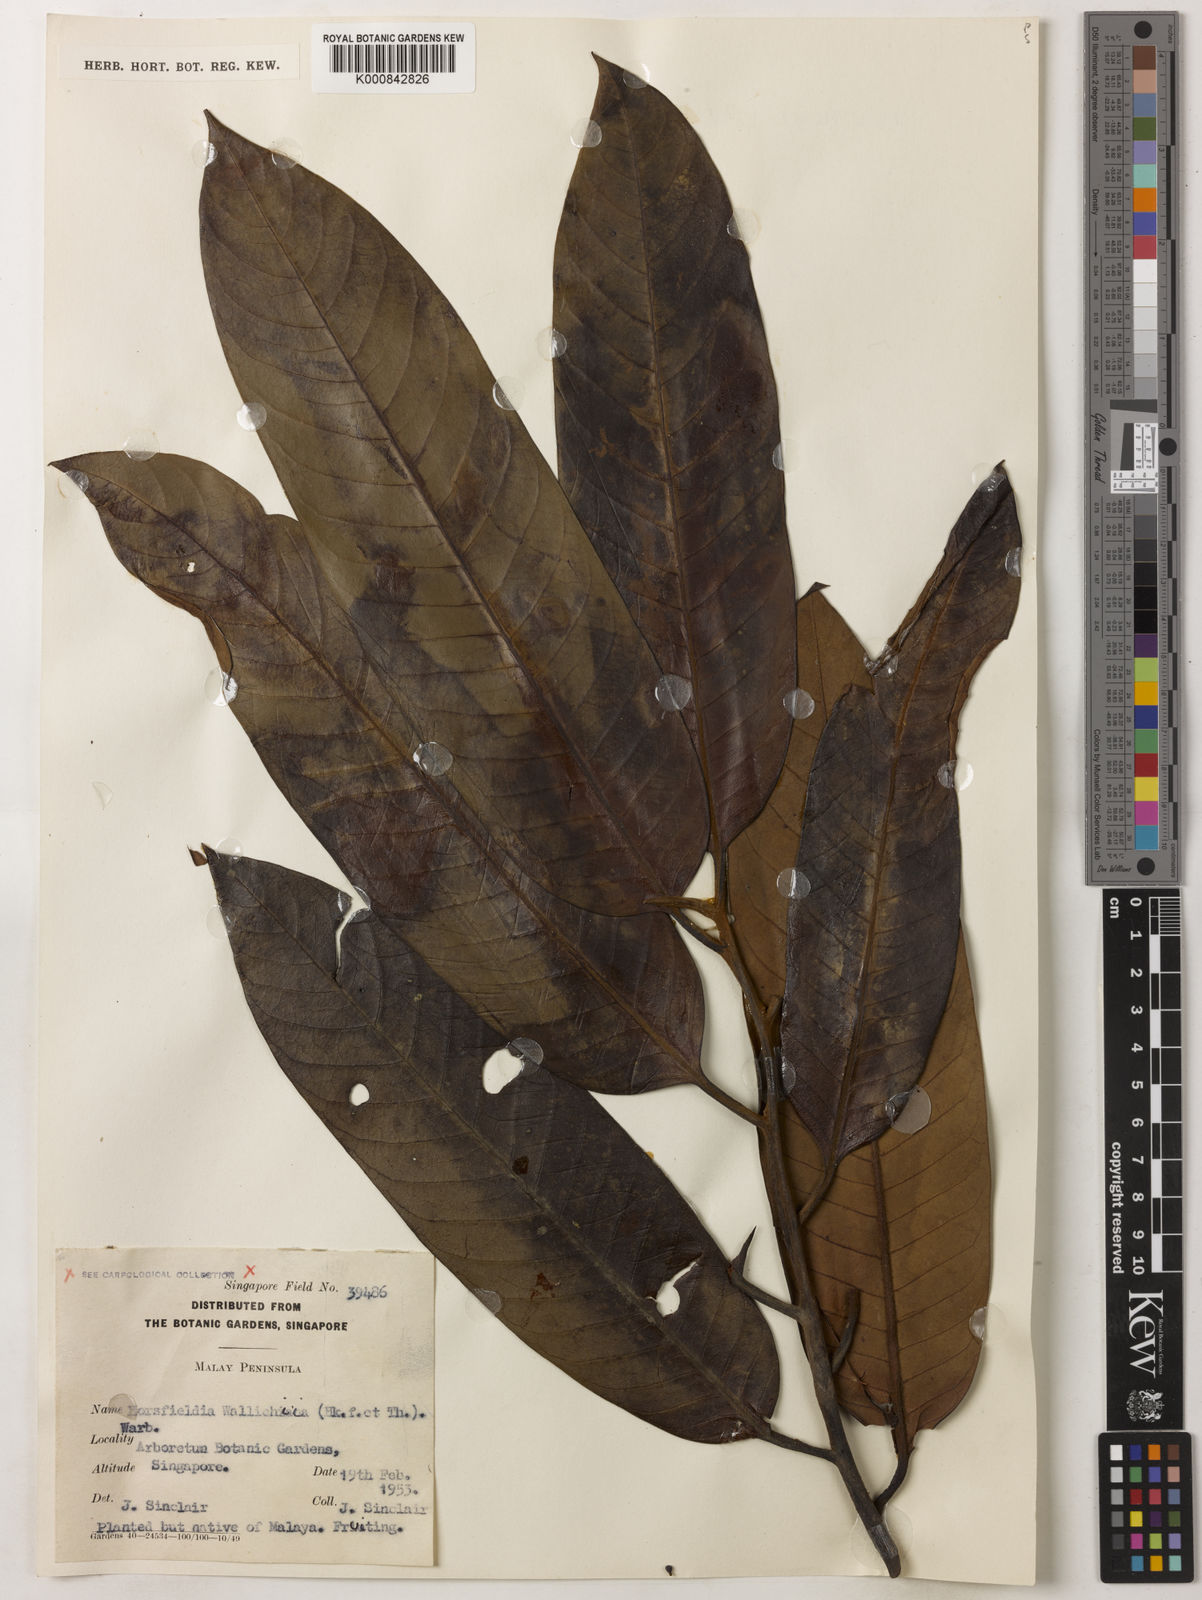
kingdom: Plantae
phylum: Tracheophyta
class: Magnoliopsida
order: Magnoliales
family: Myristicaceae
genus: Horsfieldia
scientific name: Horsfieldia wallichii
